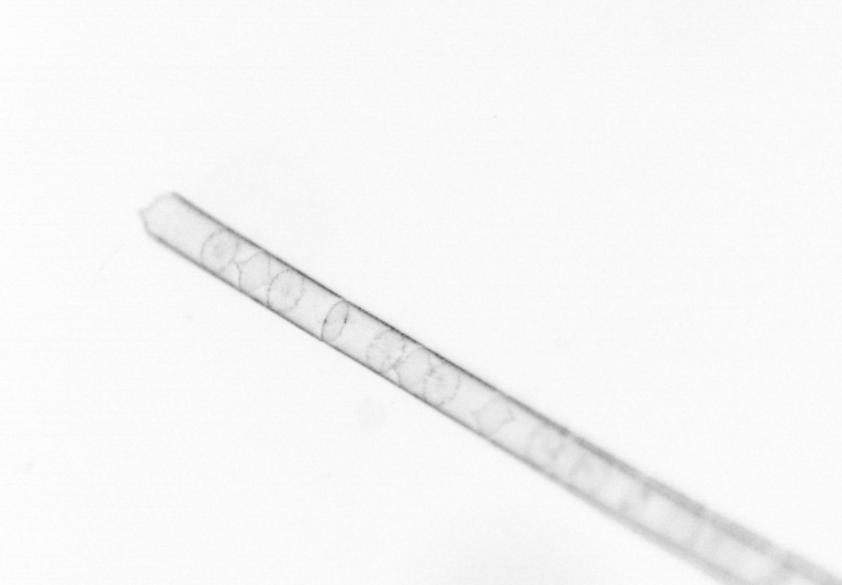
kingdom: Chromista
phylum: Ochrophyta
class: Bacillariophyceae
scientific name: Bacillariophyceae
